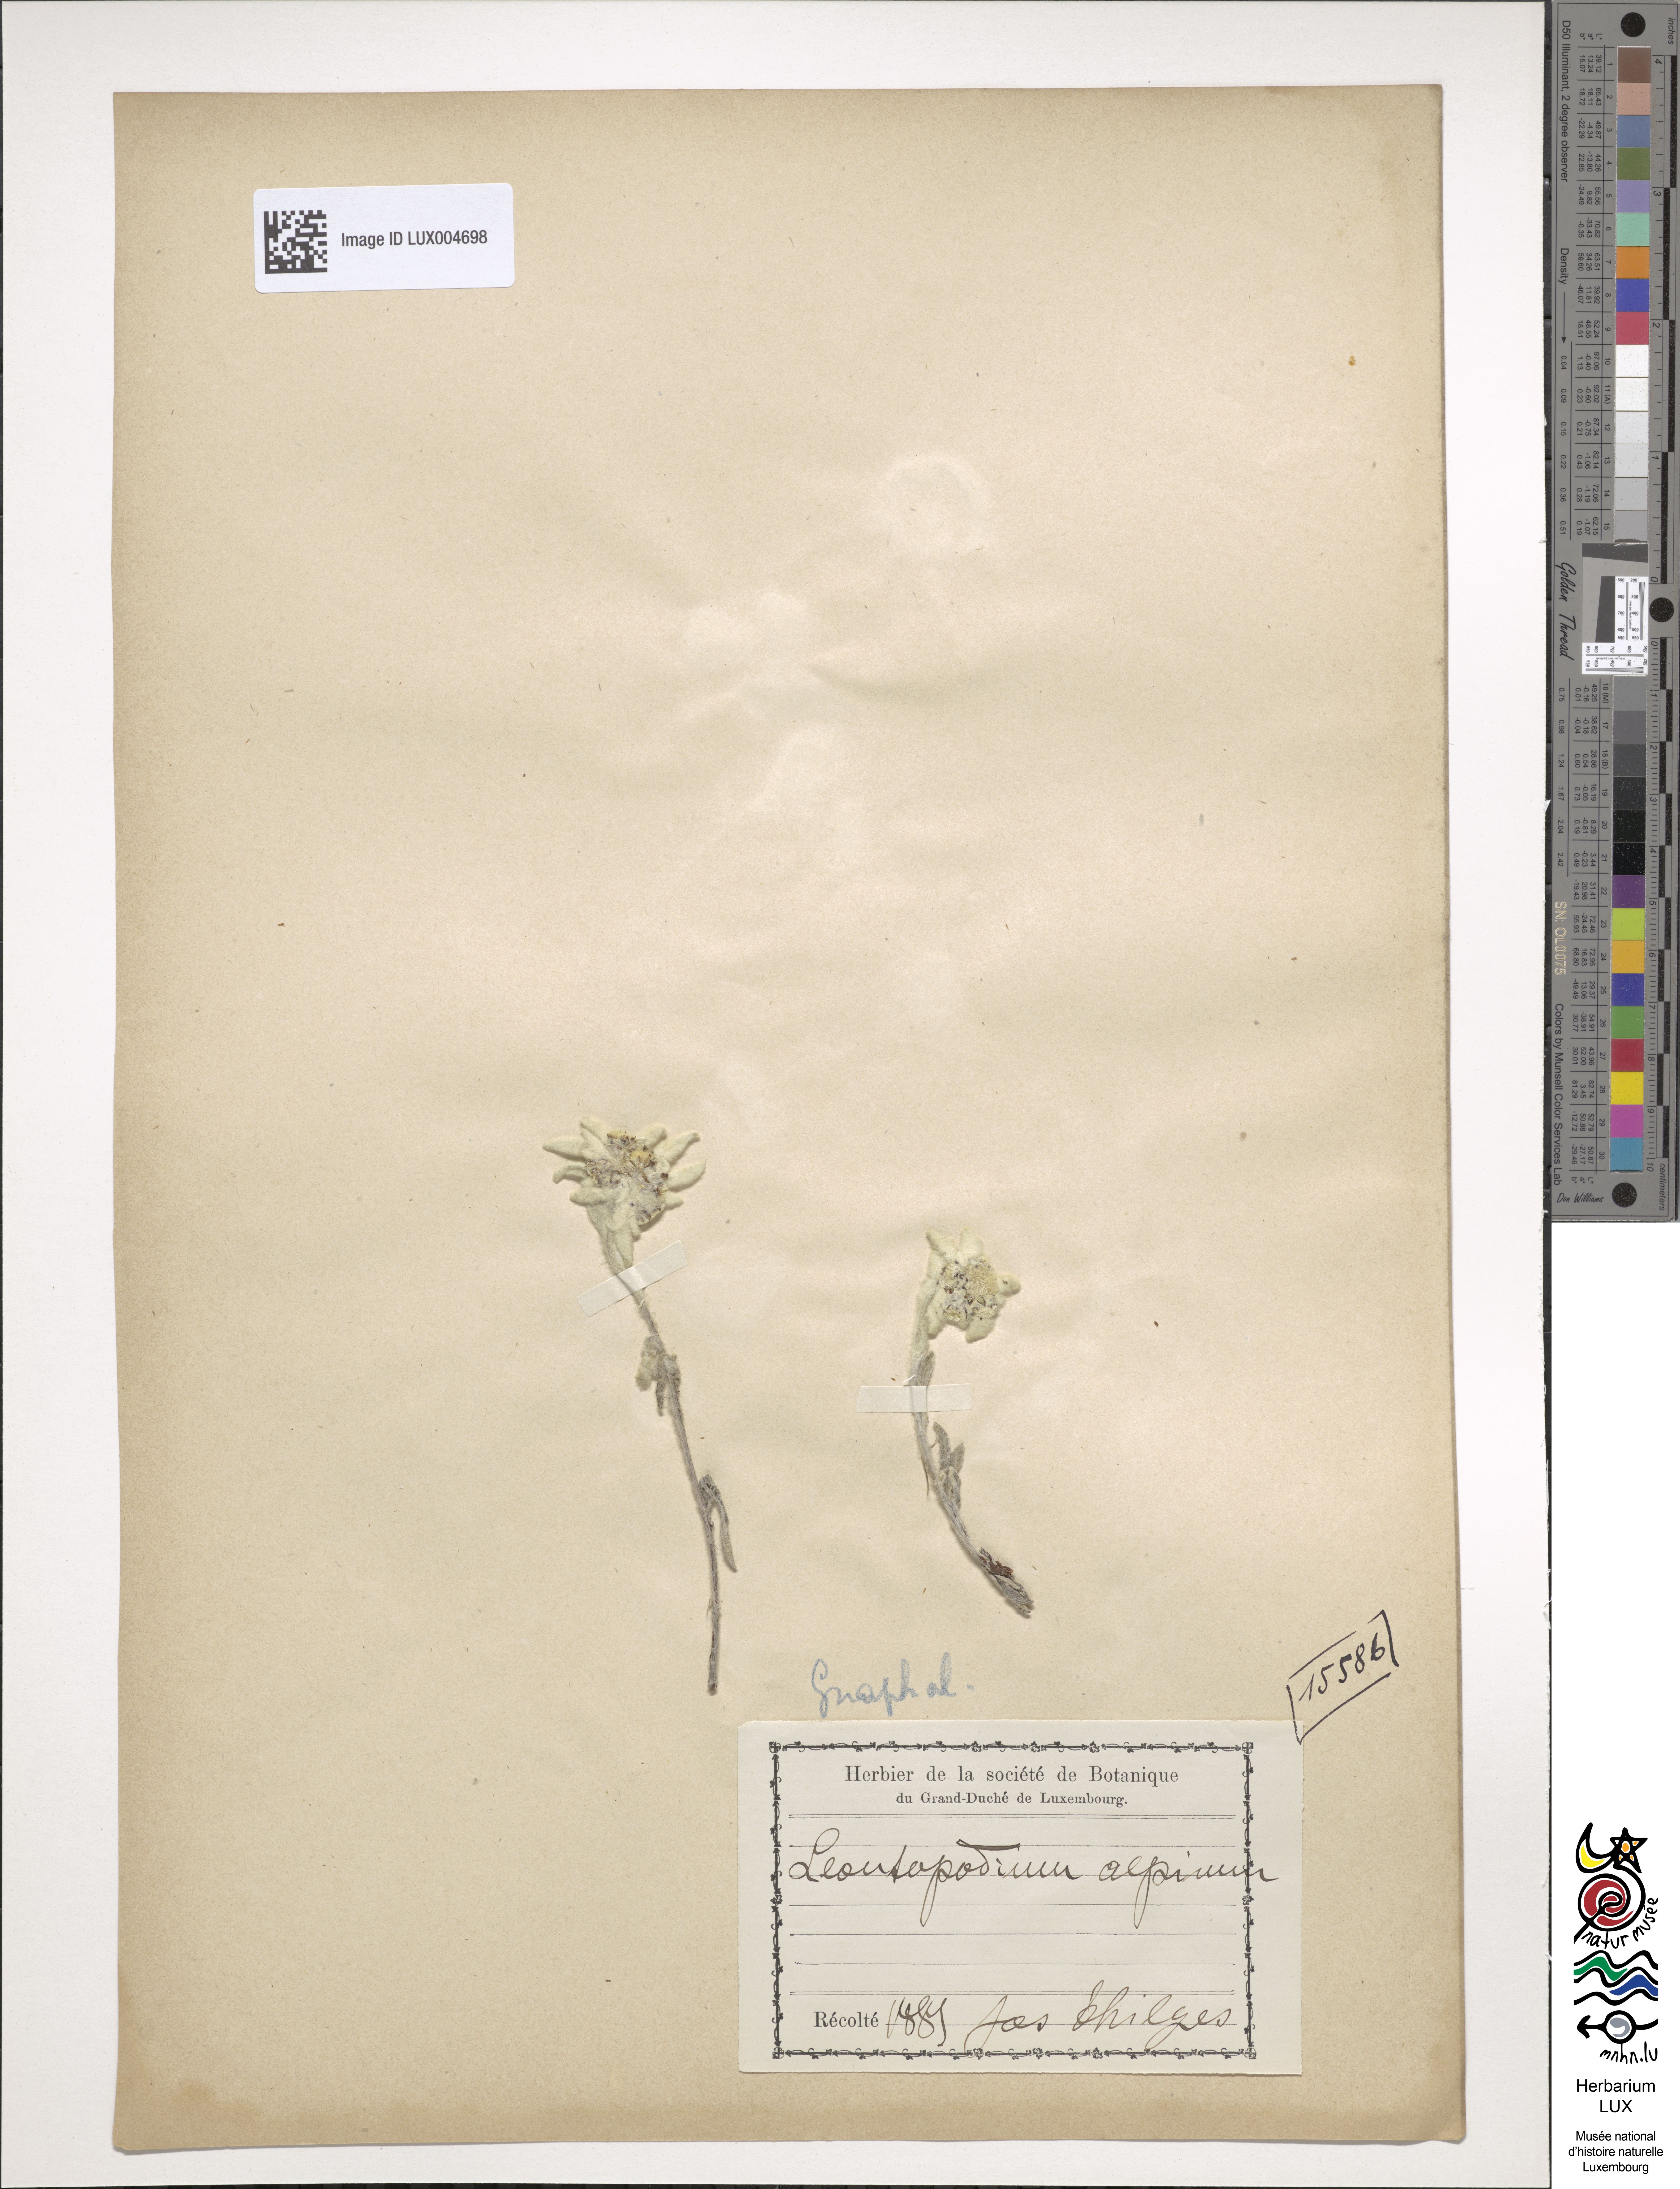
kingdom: Plantae
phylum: Tracheophyta
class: Magnoliopsida
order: Asterales
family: Asteraceae
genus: Leontopodium
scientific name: Leontopodium nivale
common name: Edelweiss
